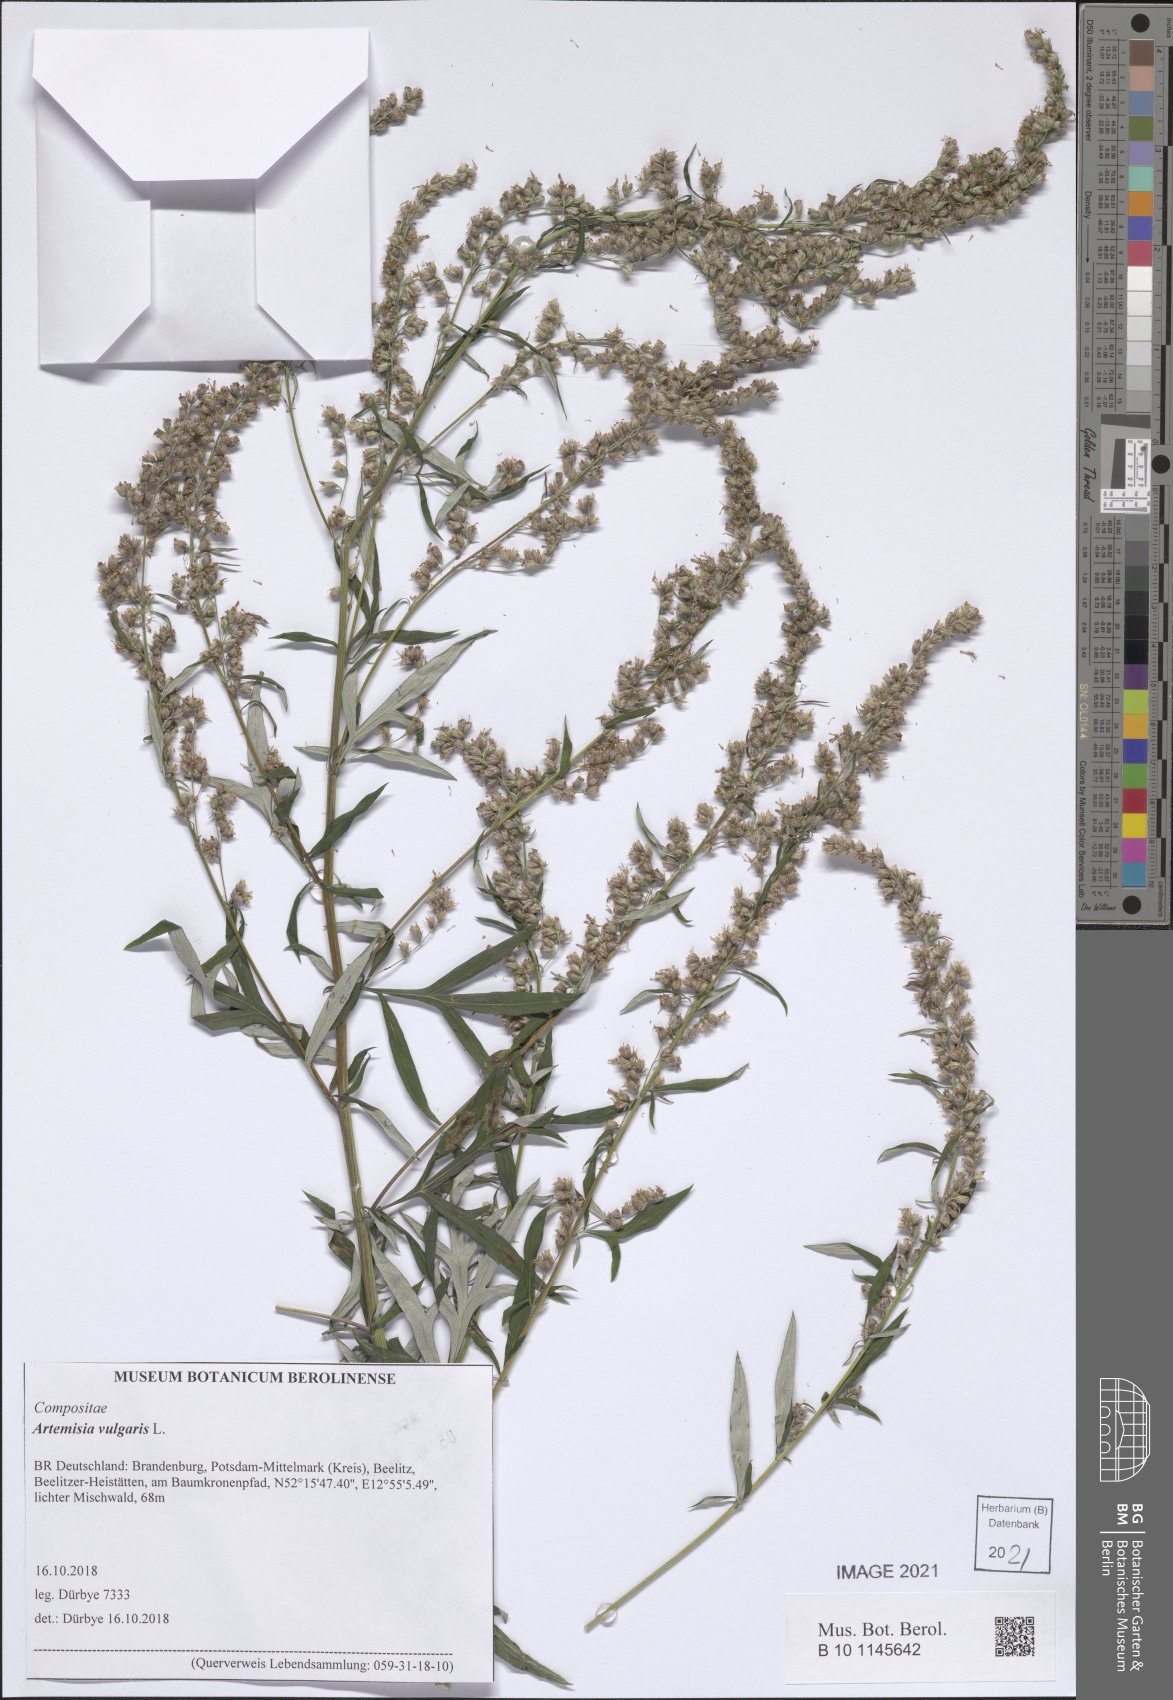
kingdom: Plantae
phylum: Tracheophyta
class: Magnoliopsida
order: Asterales
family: Asteraceae
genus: Artemisia
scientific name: Artemisia vulgaris
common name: Mugwort
